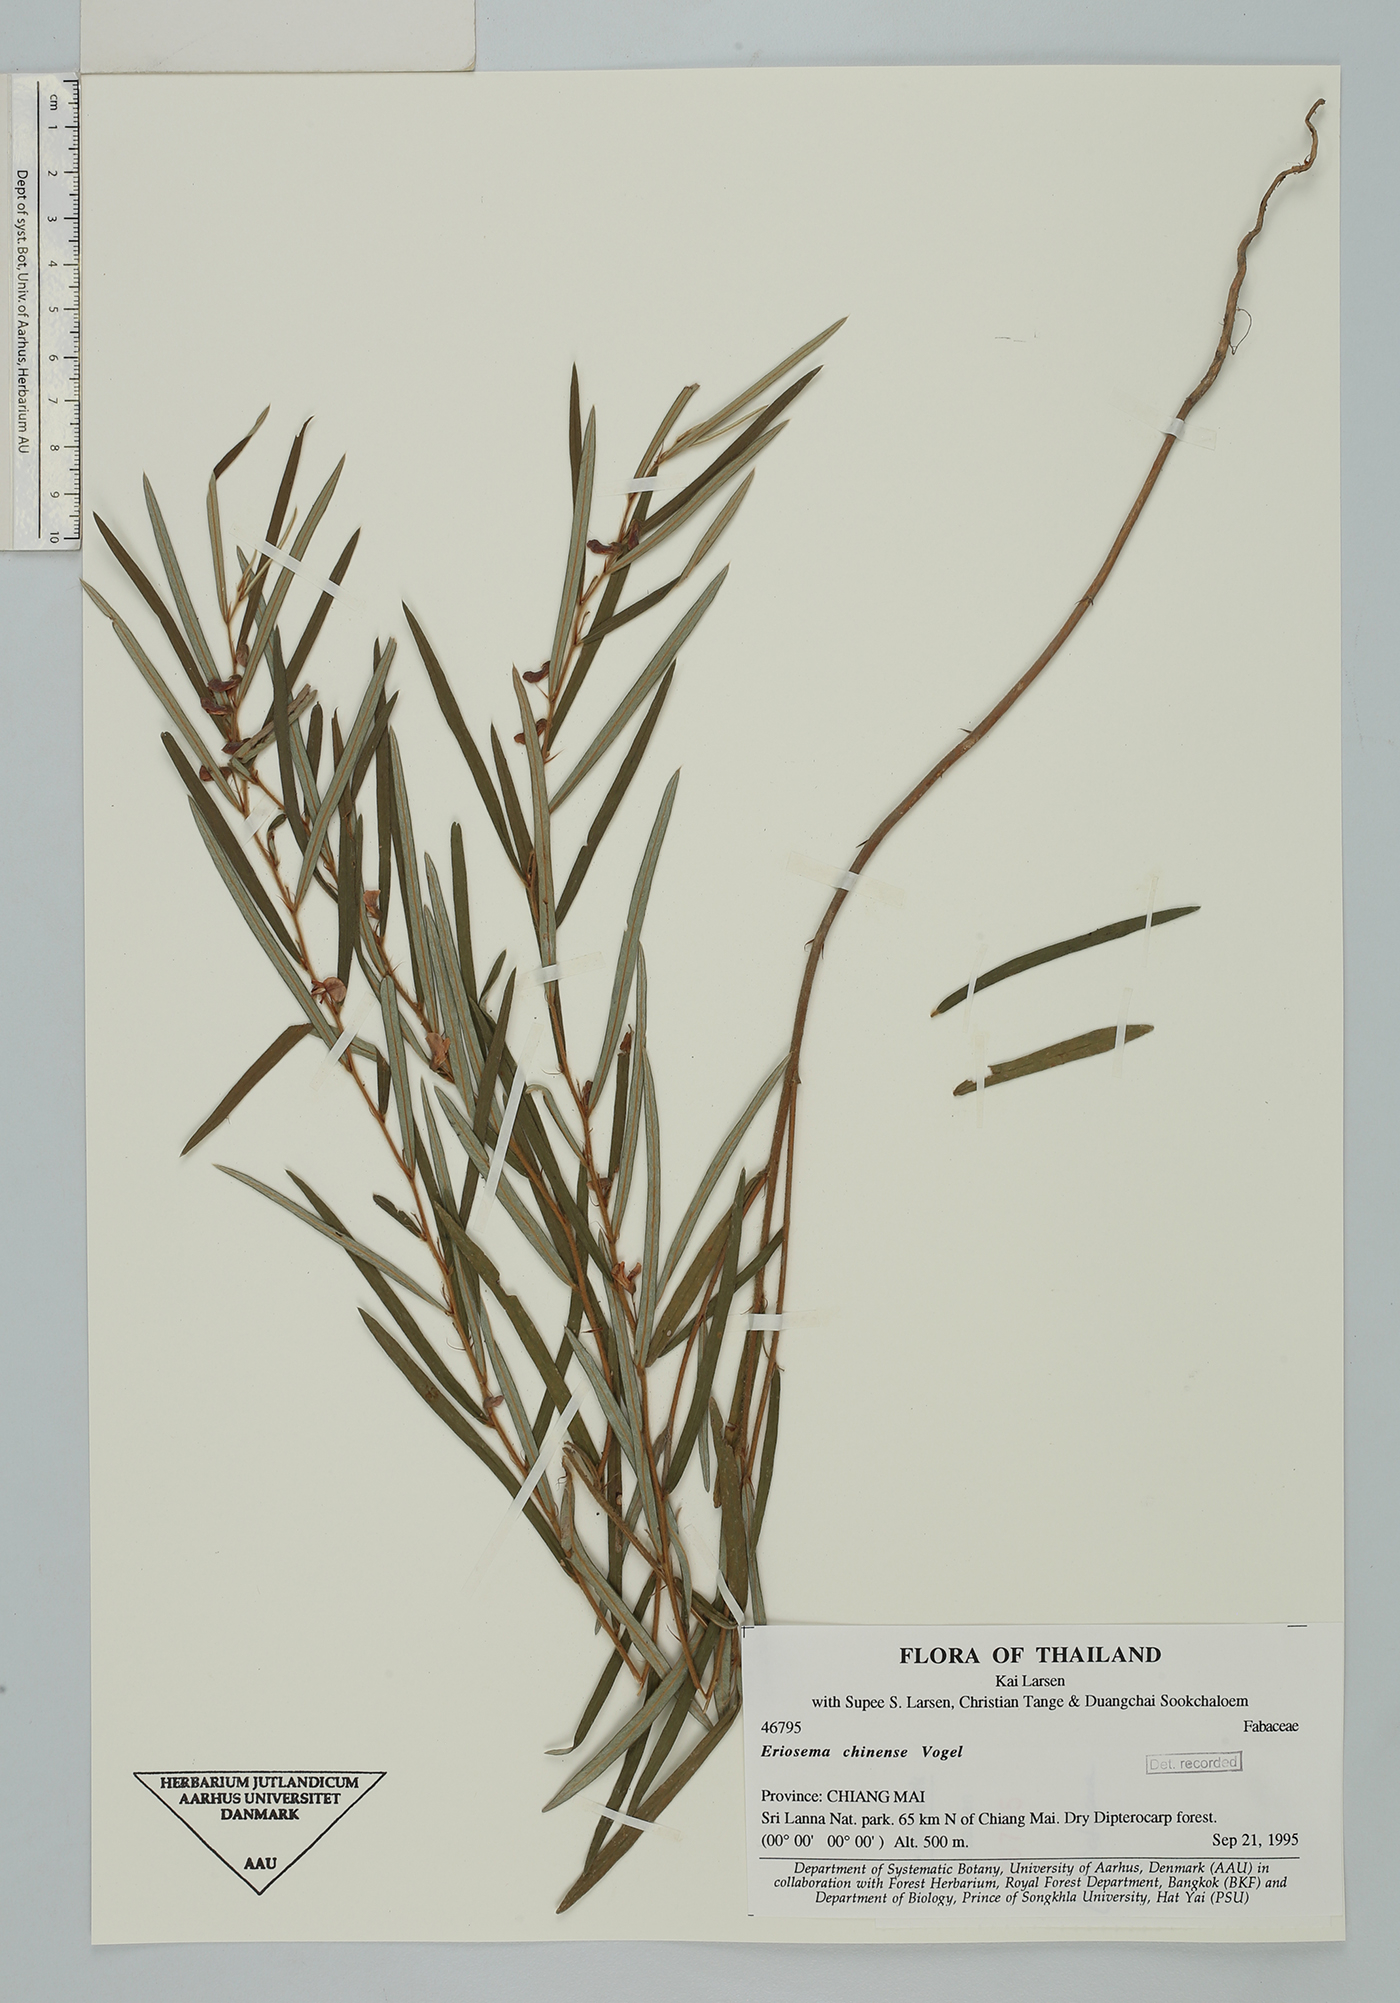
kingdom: Plantae
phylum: Tracheophyta
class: Magnoliopsida
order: Fabales
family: Fabaceae
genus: Eriosema
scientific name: Eriosema chinense
